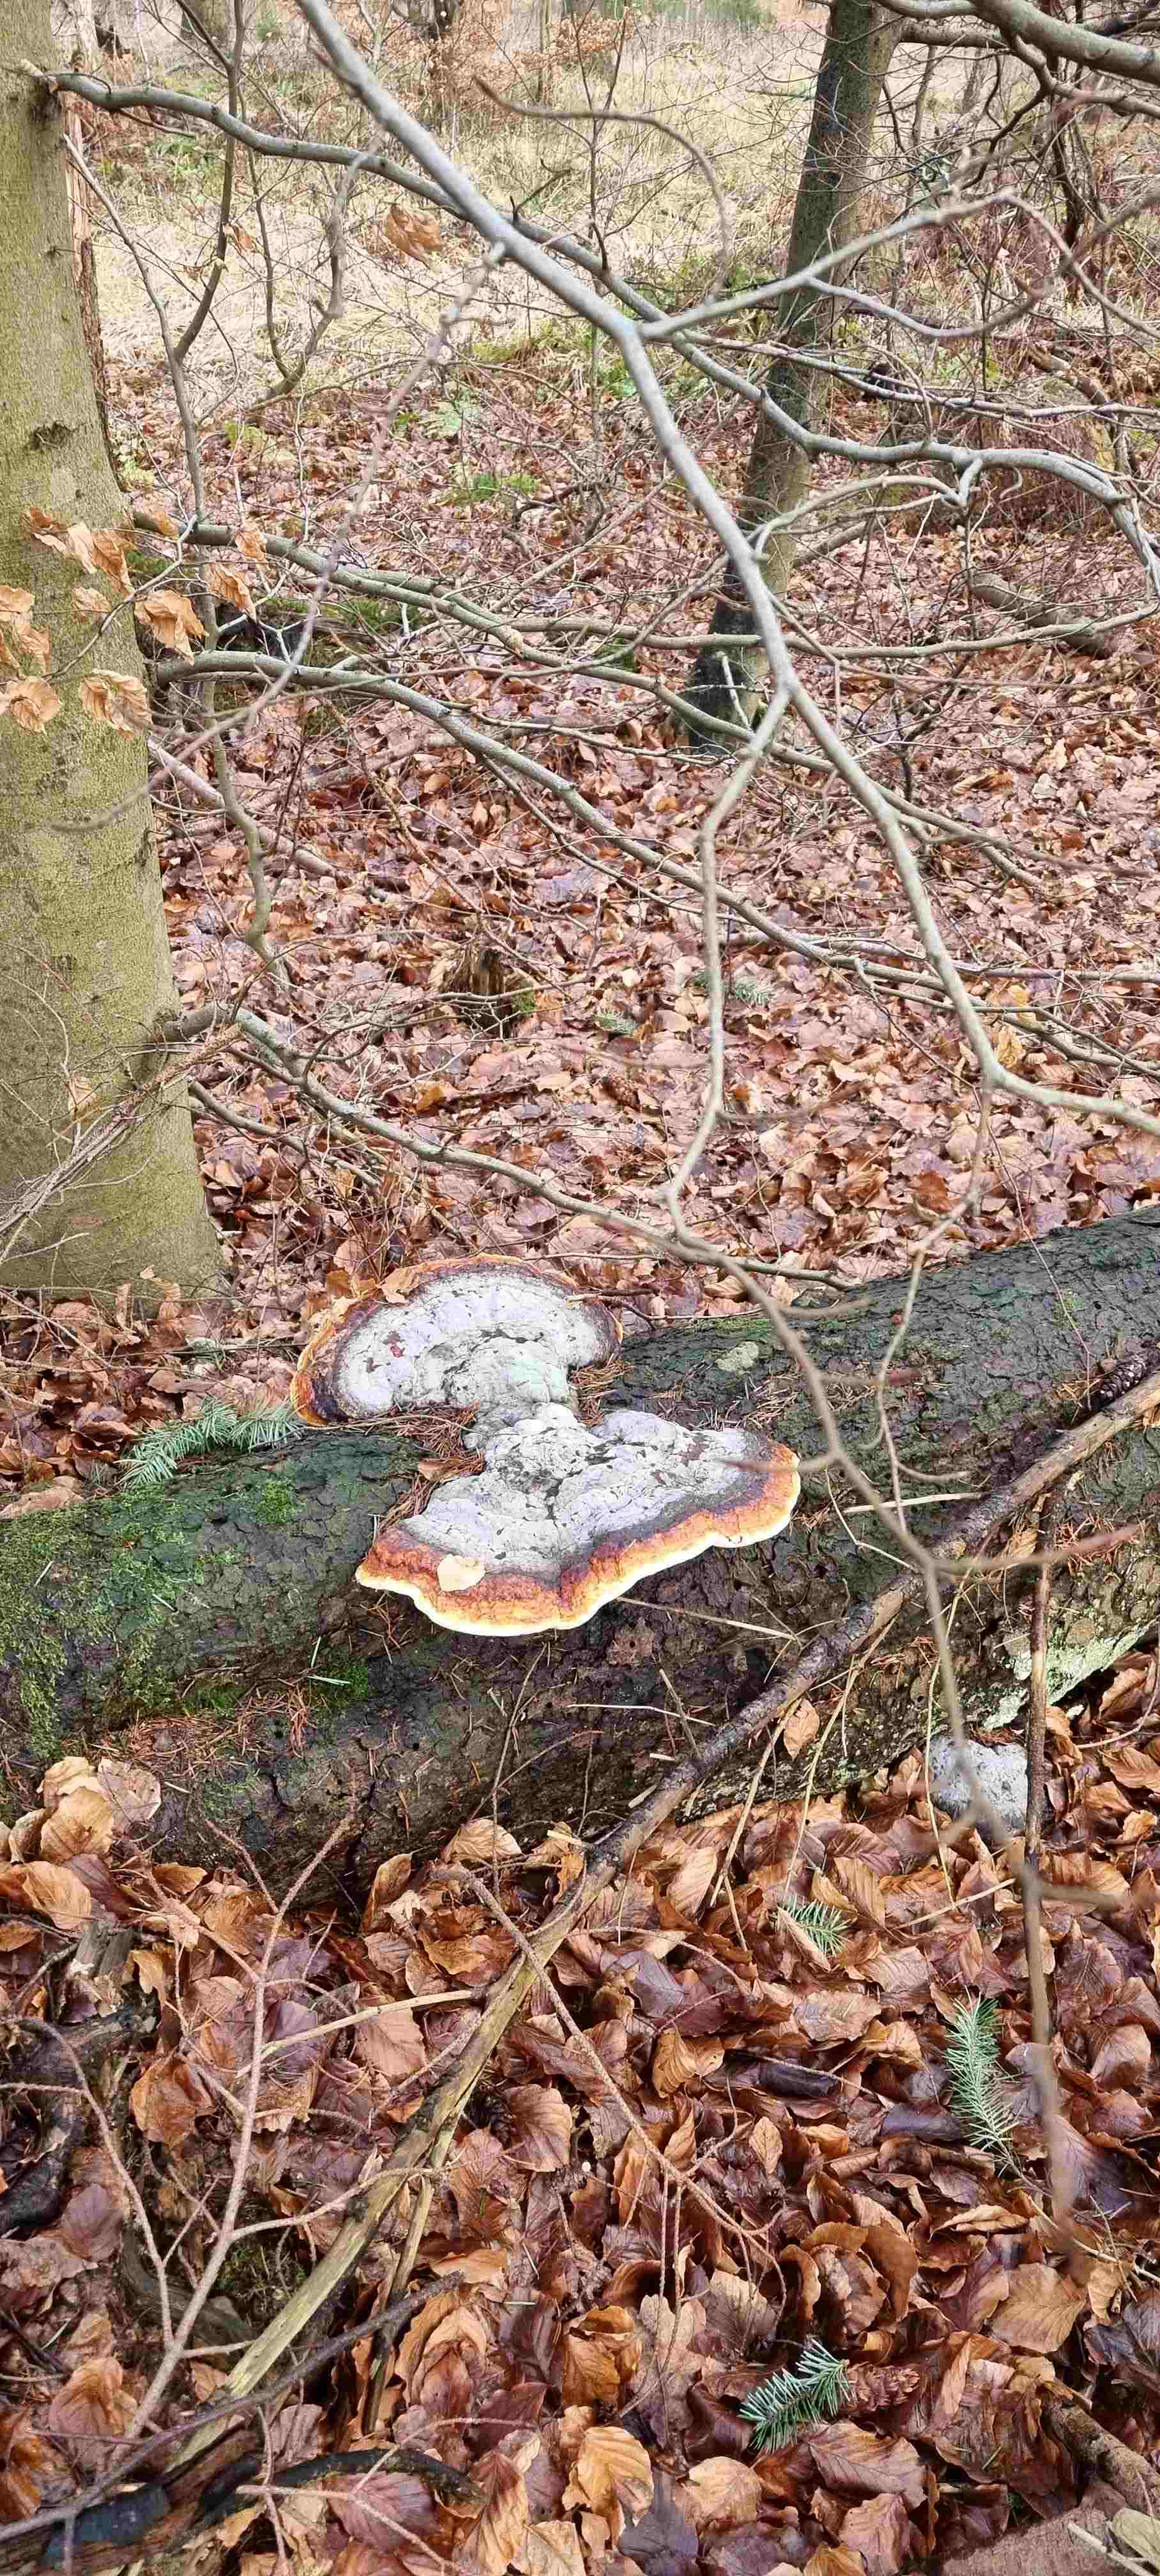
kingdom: Fungi
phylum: Basidiomycota
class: Agaricomycetes
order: Polyporales
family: Fomitopsidaceae
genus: Fomitopsis
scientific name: Fomitopsis pinicola
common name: randbæltet hovporesvamp
